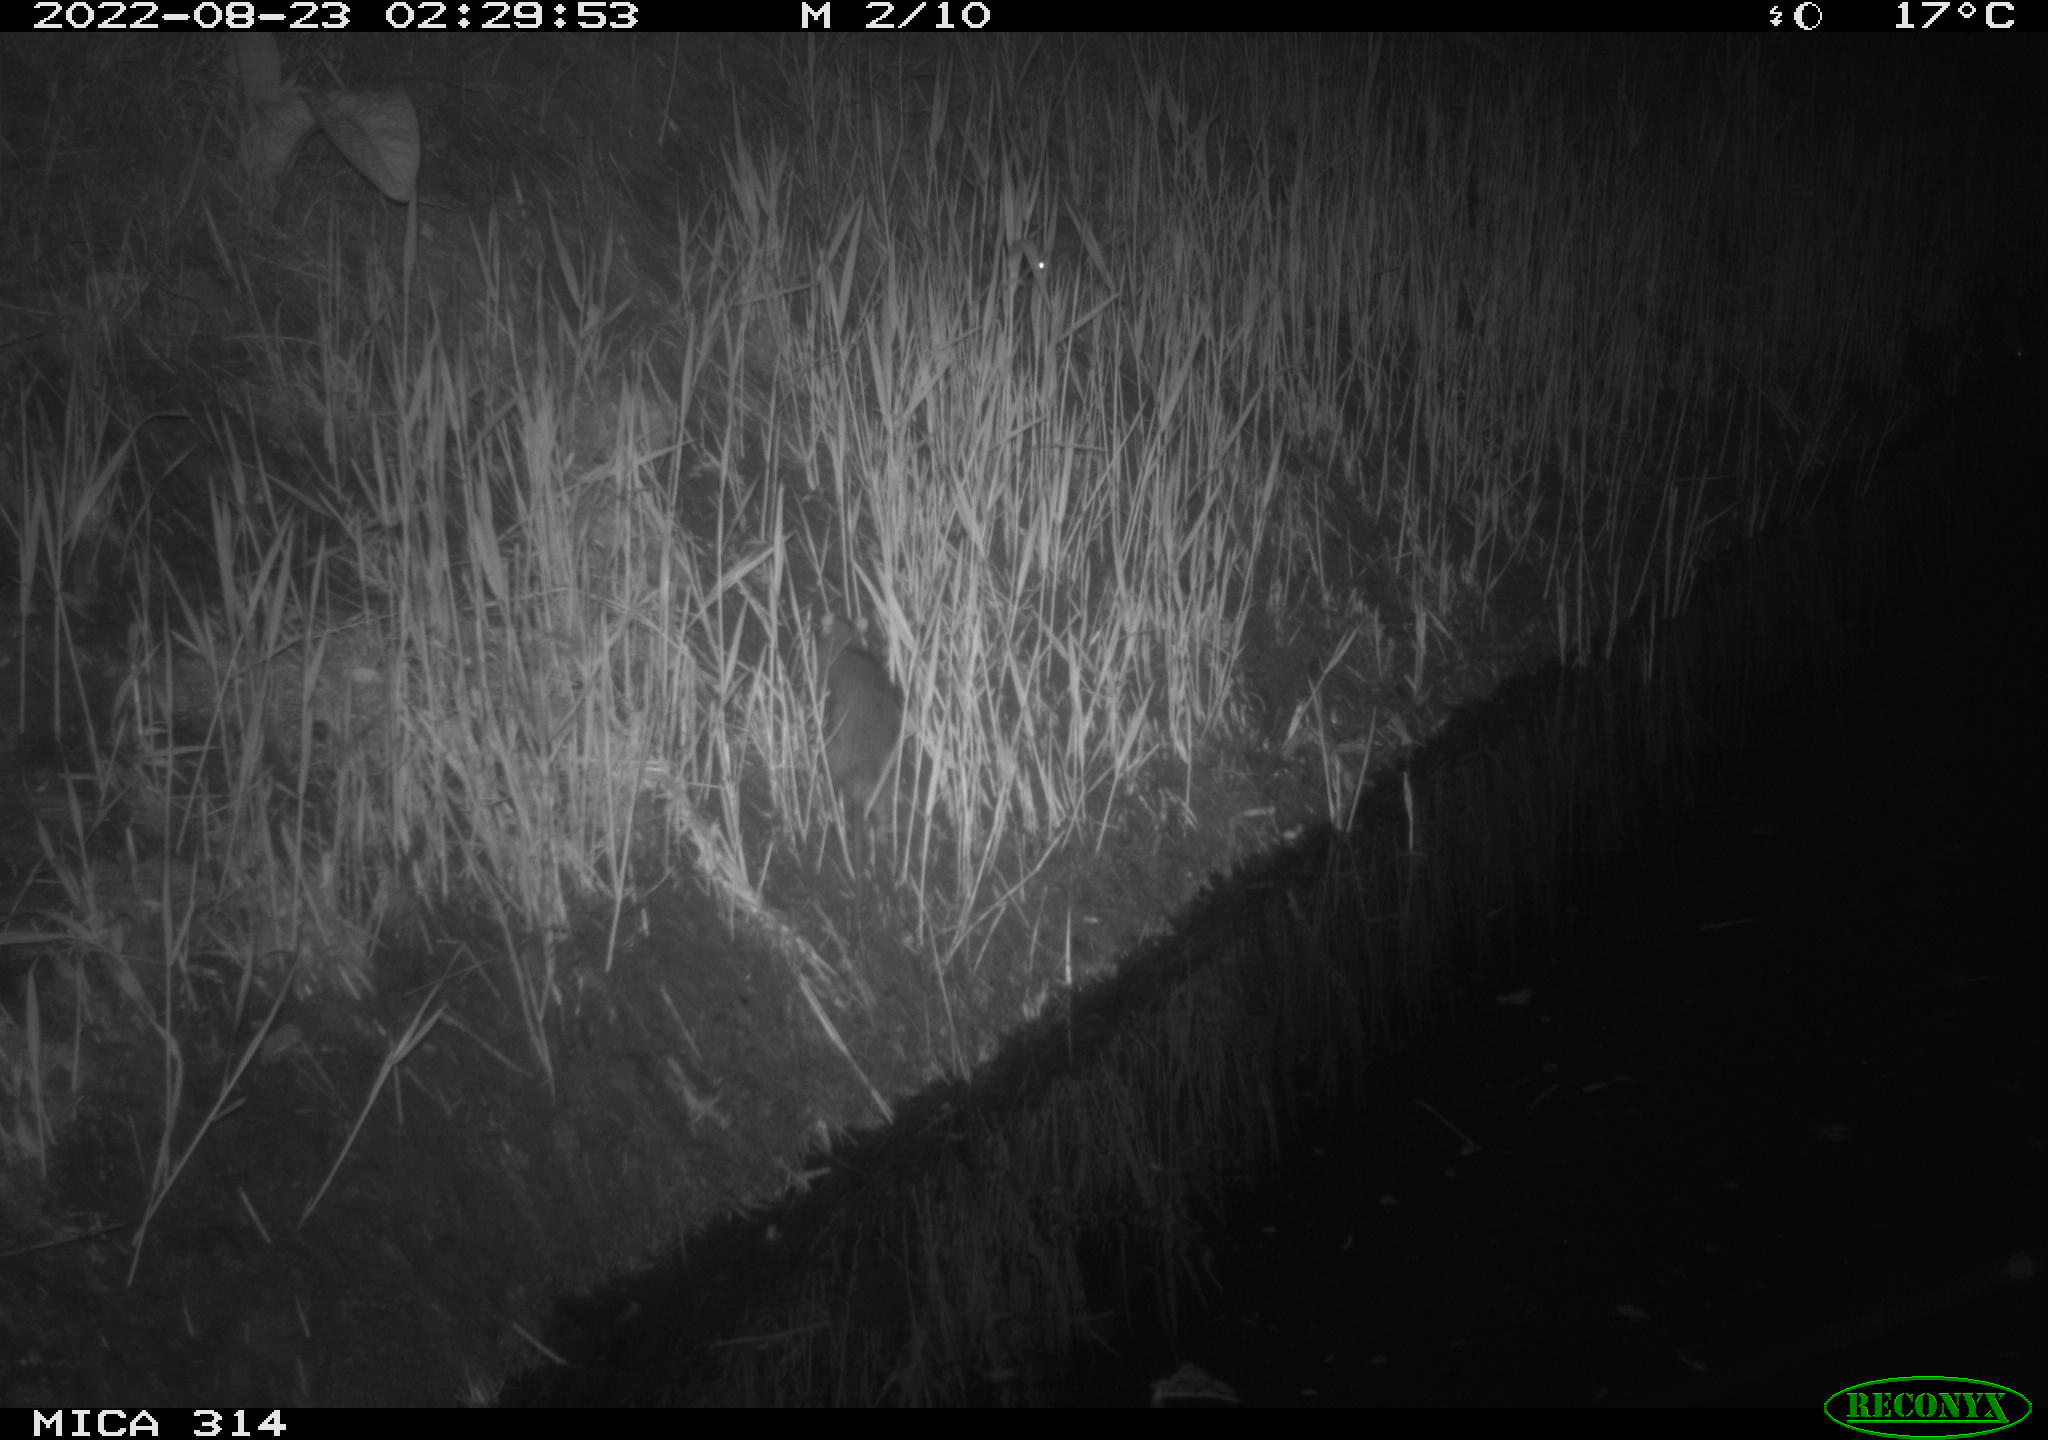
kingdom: Animalia
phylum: Chordata
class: Mammalia
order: Rodentia
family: Muridae
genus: Rattus
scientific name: Rattus norvegicus
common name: Brown rat
